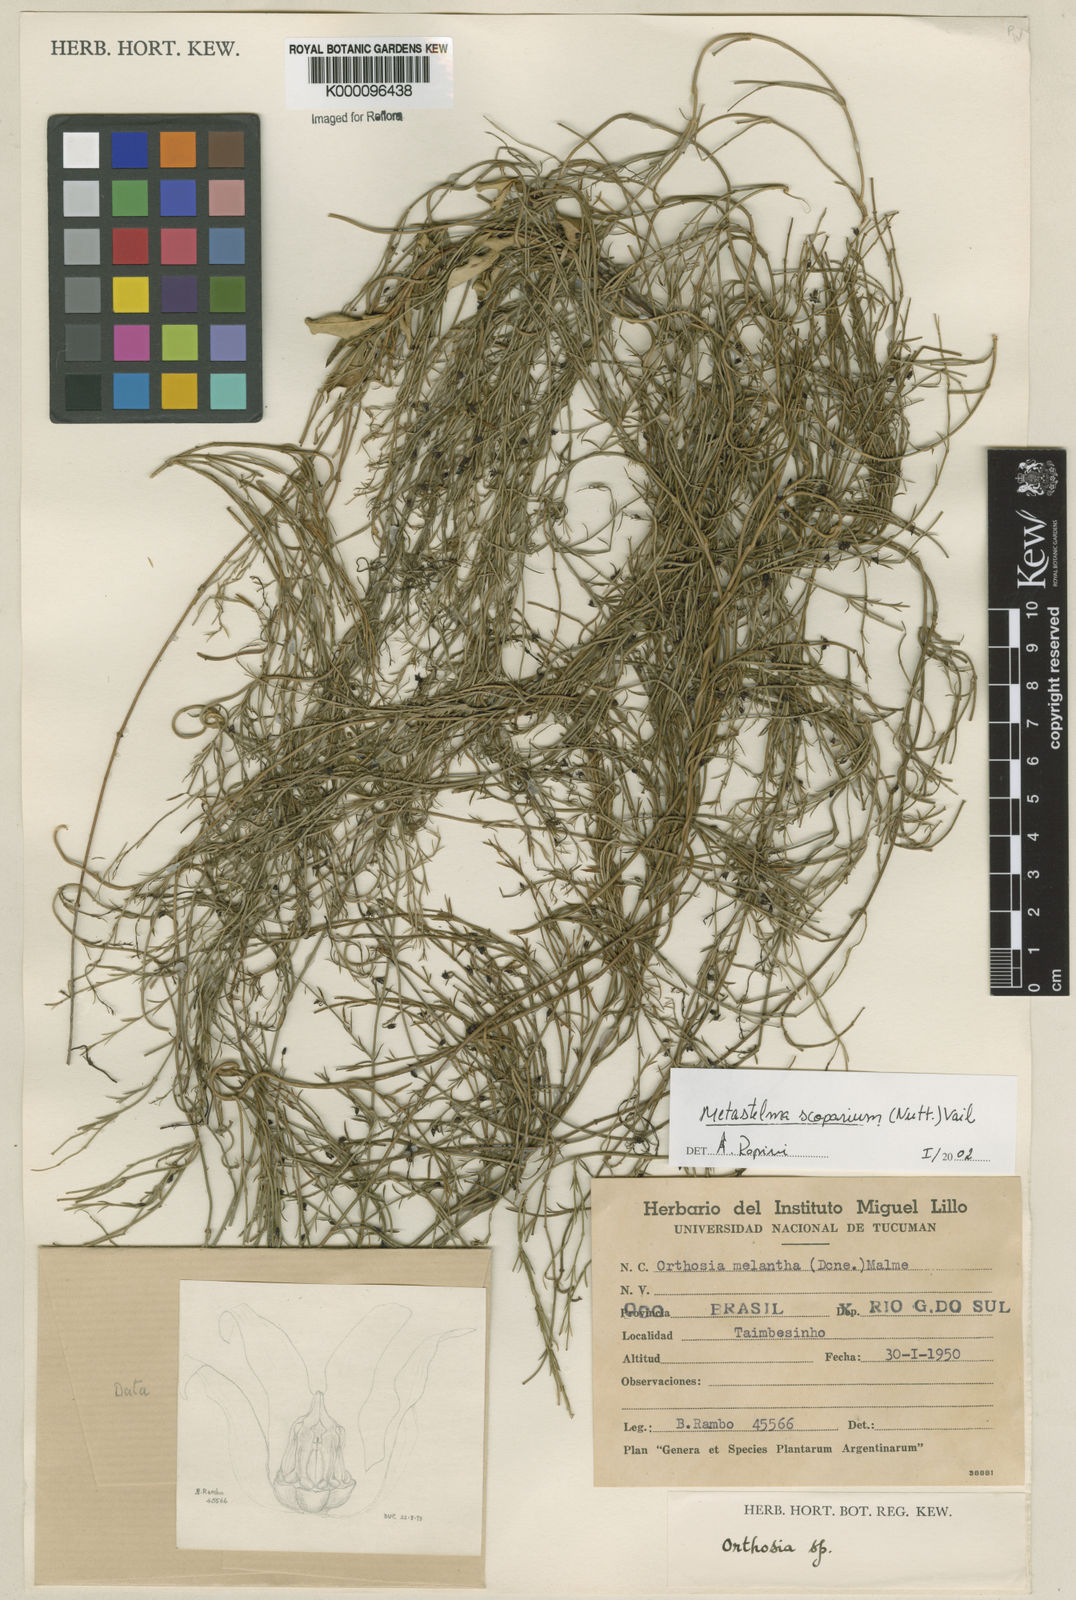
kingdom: Plantae
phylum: Tracheophyta
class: Magnoliopsida
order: Gentianales
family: Apocynaceae
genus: Orthosia
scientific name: Orthosia scoparia
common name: Leafless swallow-wort
